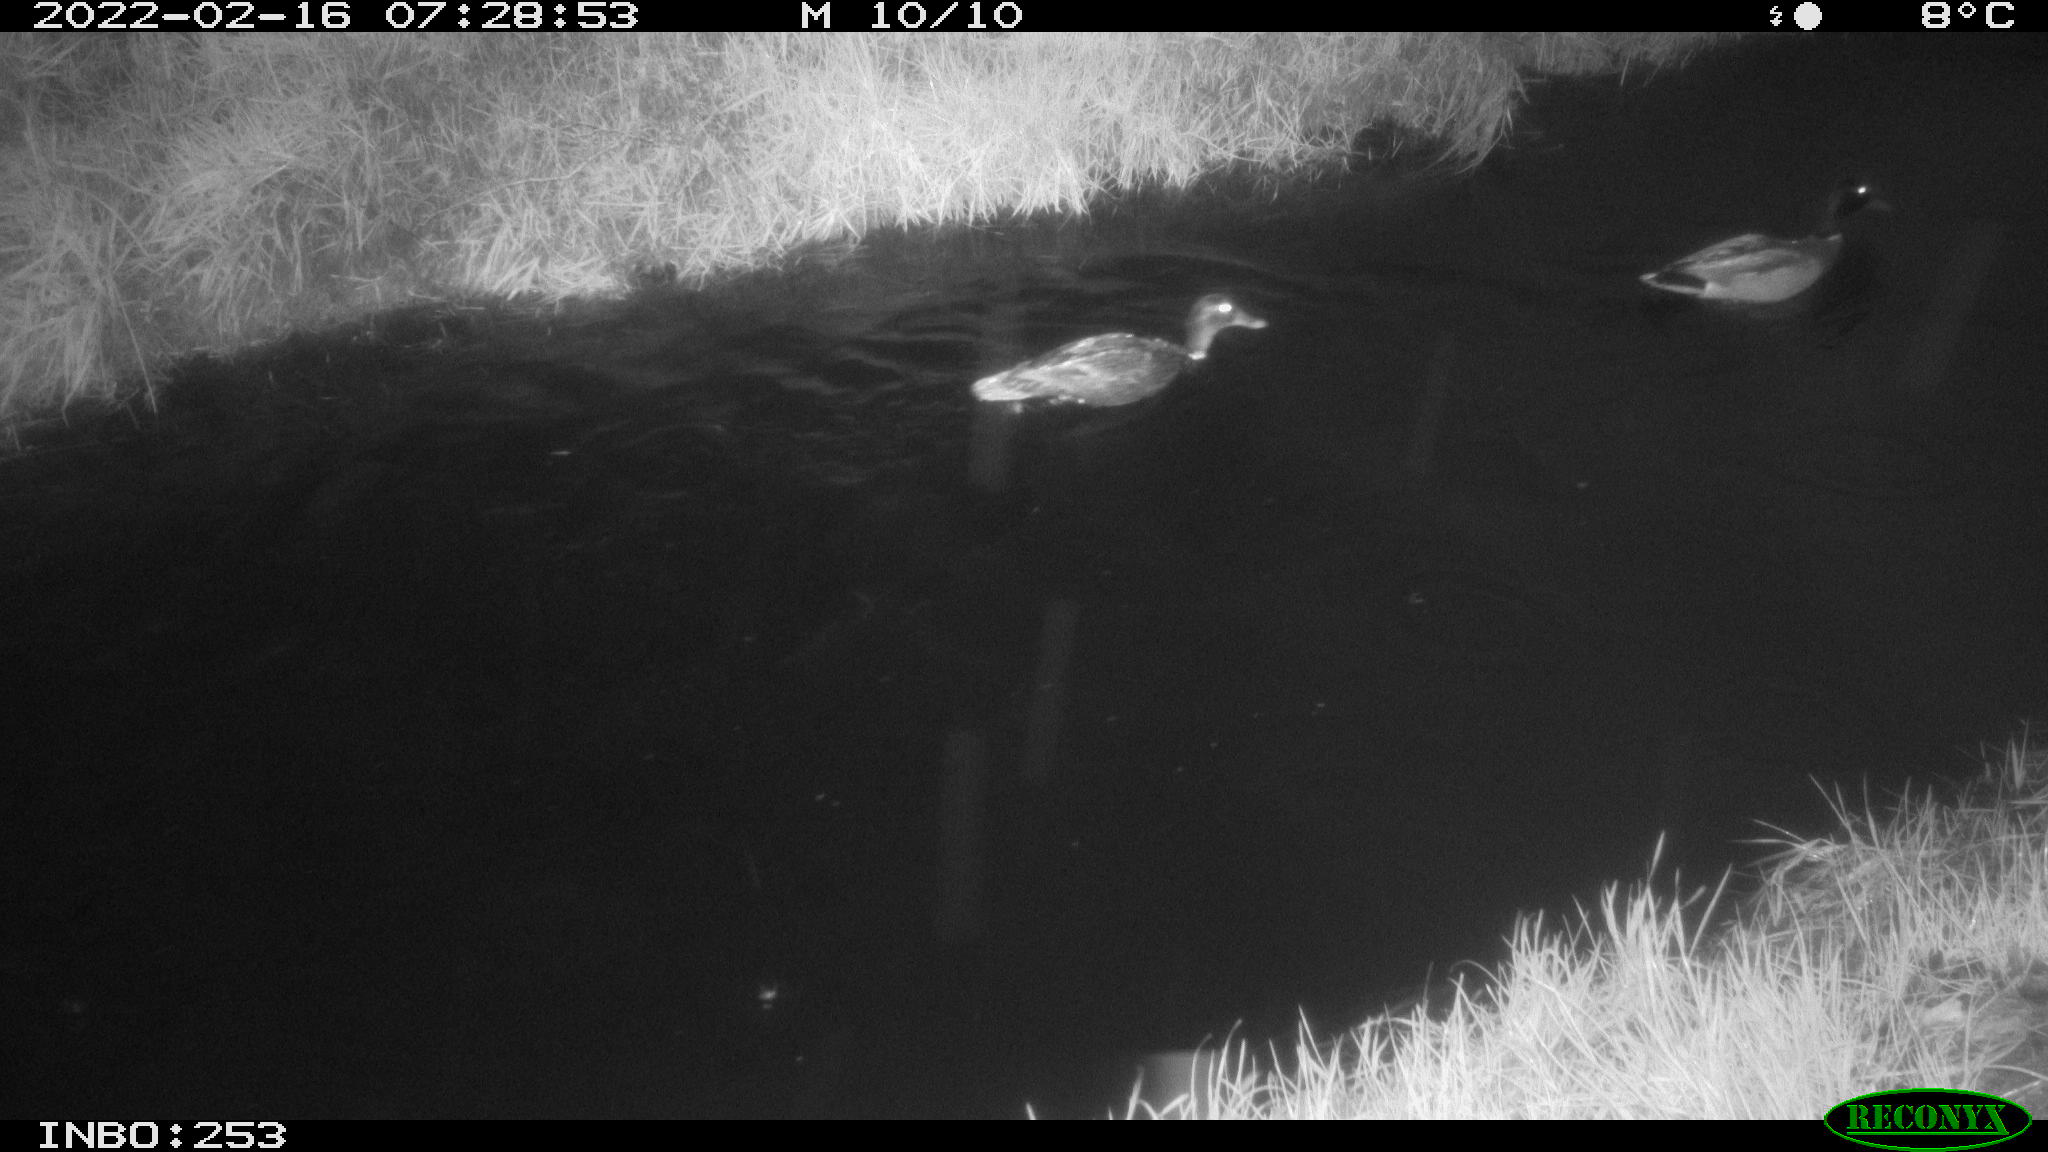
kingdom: Animalia
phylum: Chordata
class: Aves
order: Anseriformes
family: Anatidae
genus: Anas
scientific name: Anas platyrhynchos
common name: Mallard
